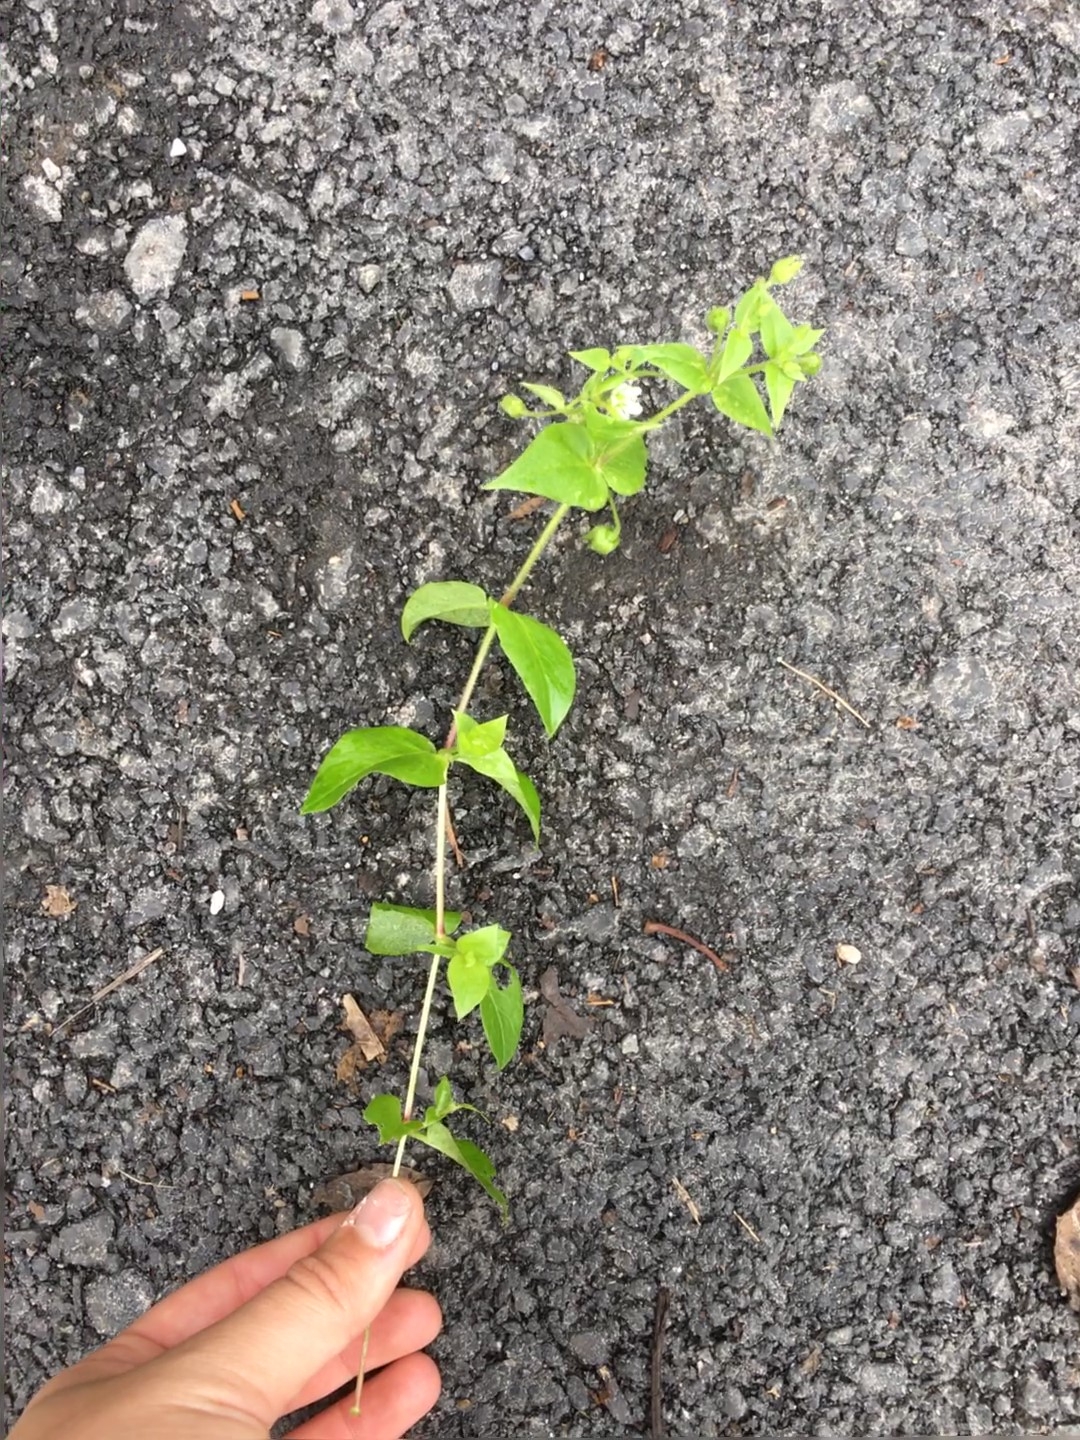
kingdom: Plantae
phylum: Tracheophyta
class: Magnoliopsida
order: Caryophyllales
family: Caryophyllaceae
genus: Stellaria
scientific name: Stellaria aquatica
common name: Giant chickweed
